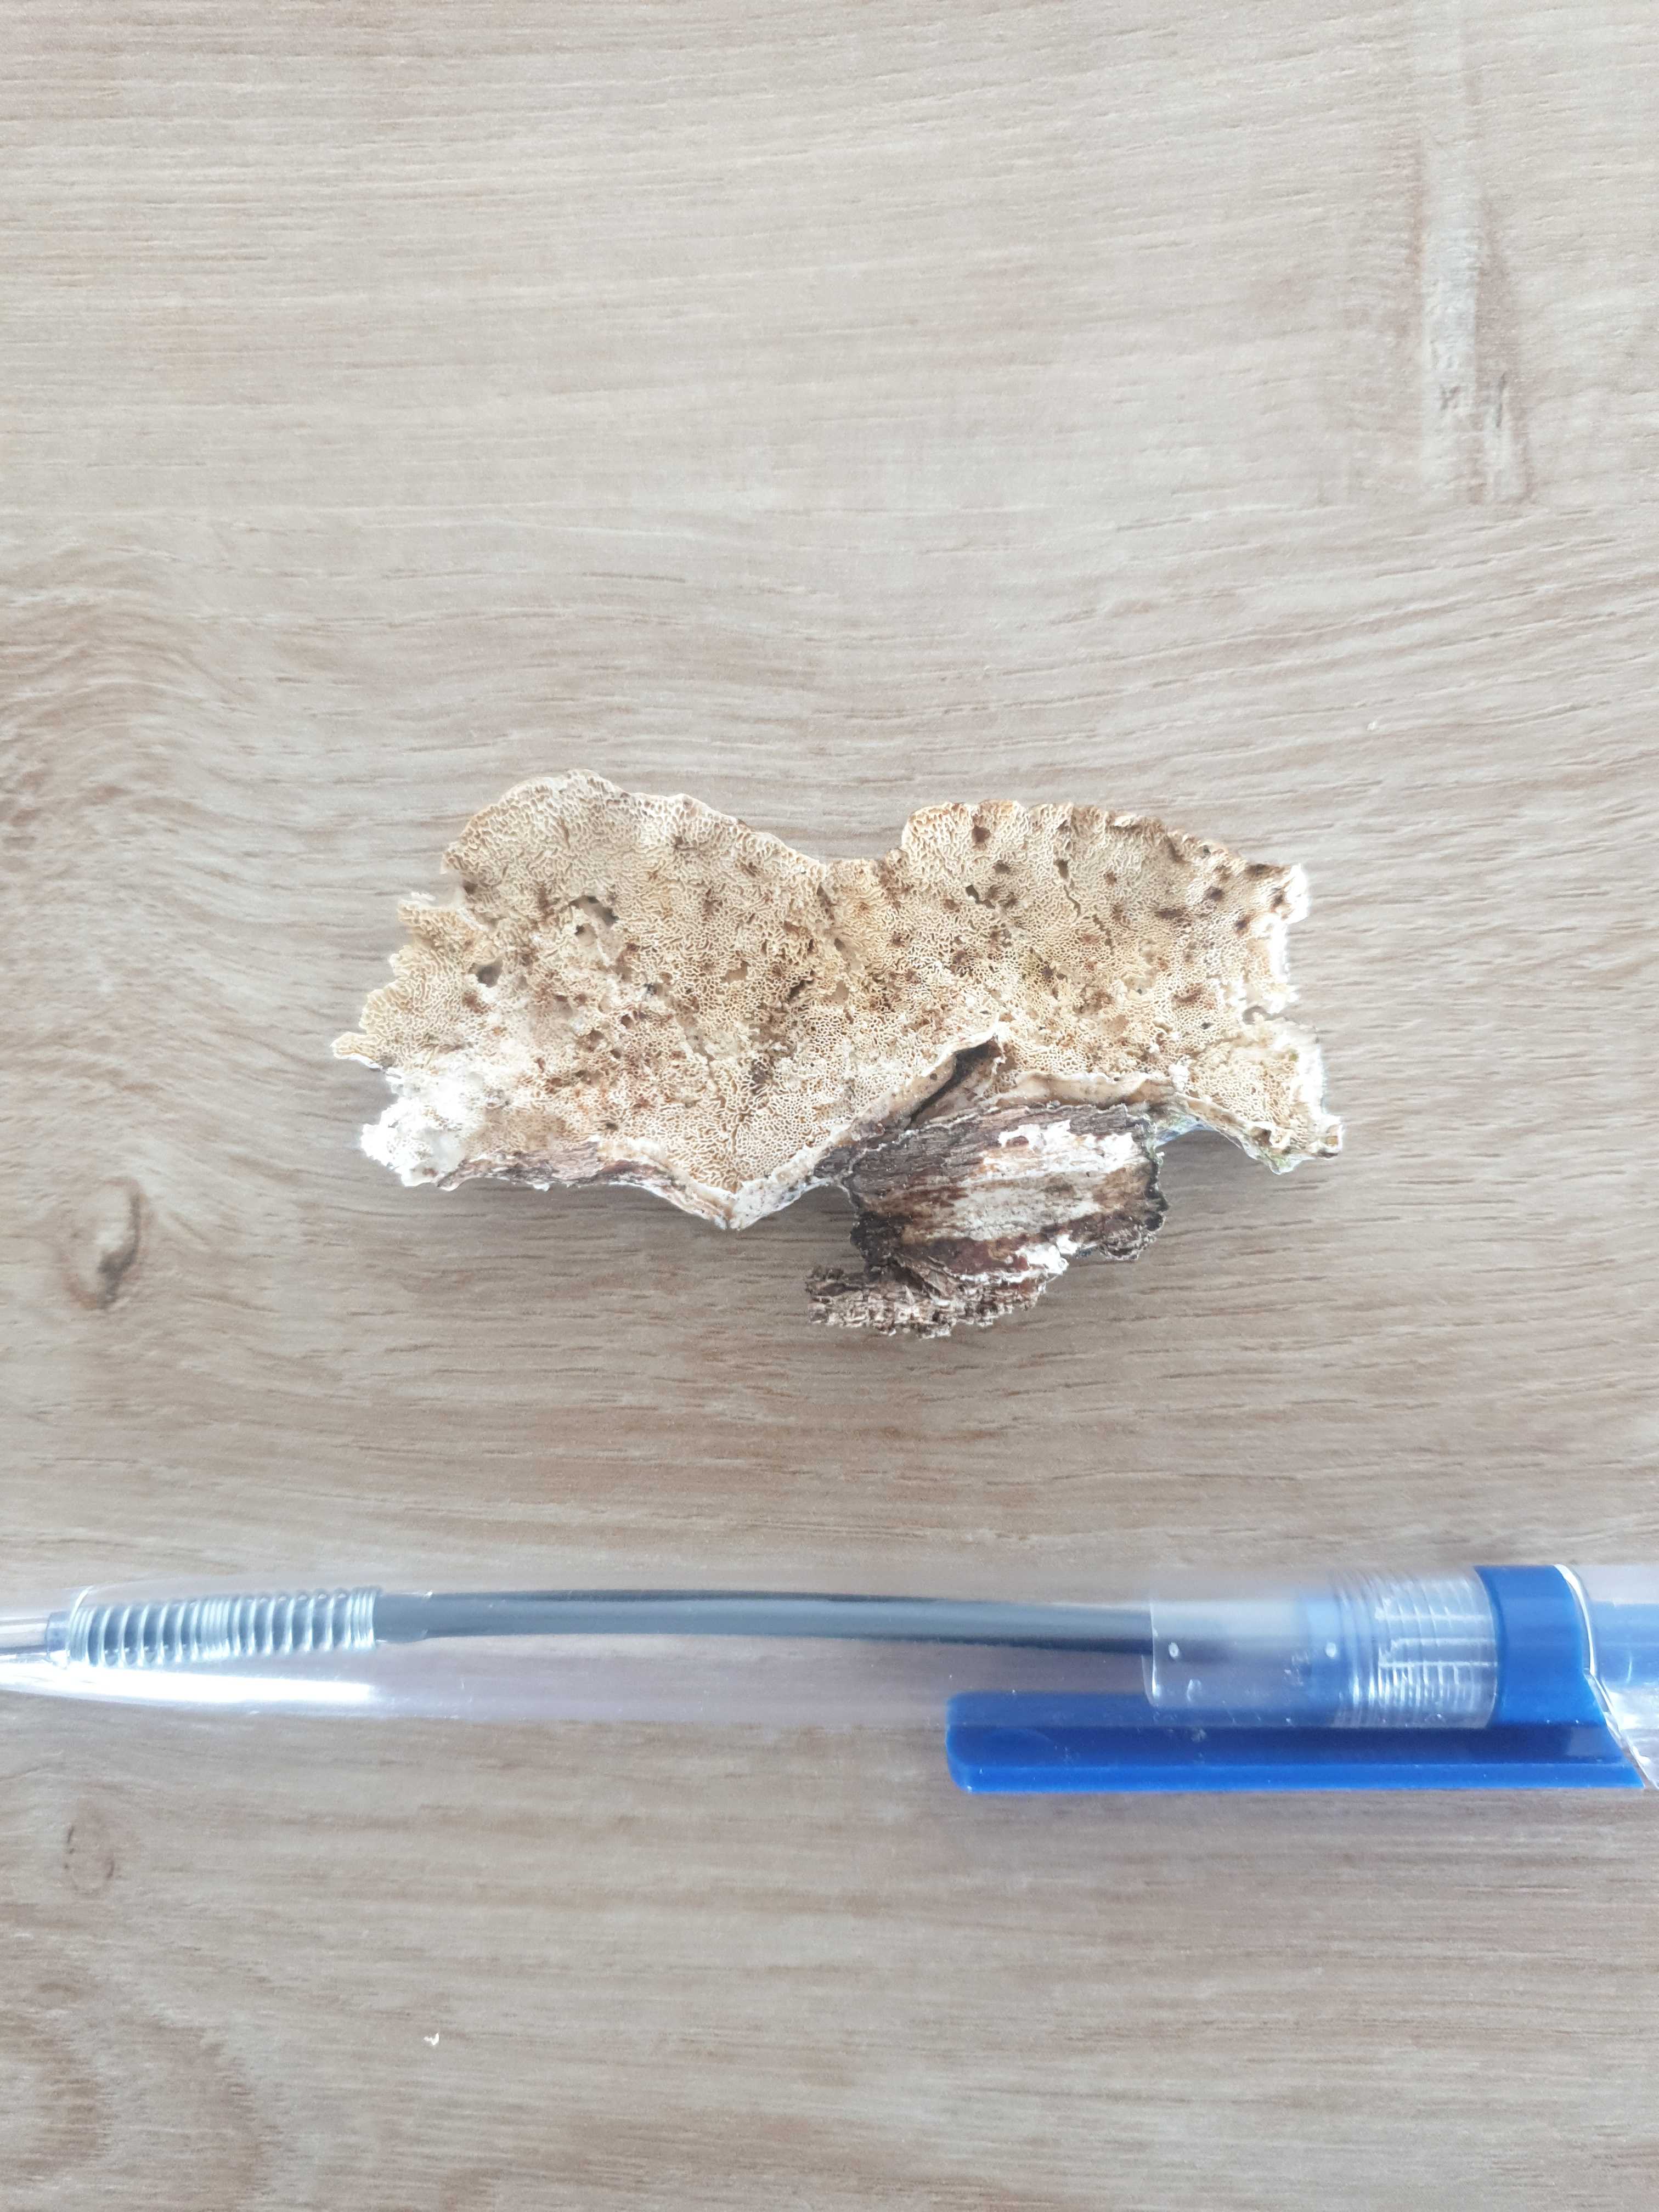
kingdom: Fungi
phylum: Basidiomycota
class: Agaricomycetes
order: Polyporales
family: Polyporaceae
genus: Trametes
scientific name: Trametes versicolor
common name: broget læderporesvamp
